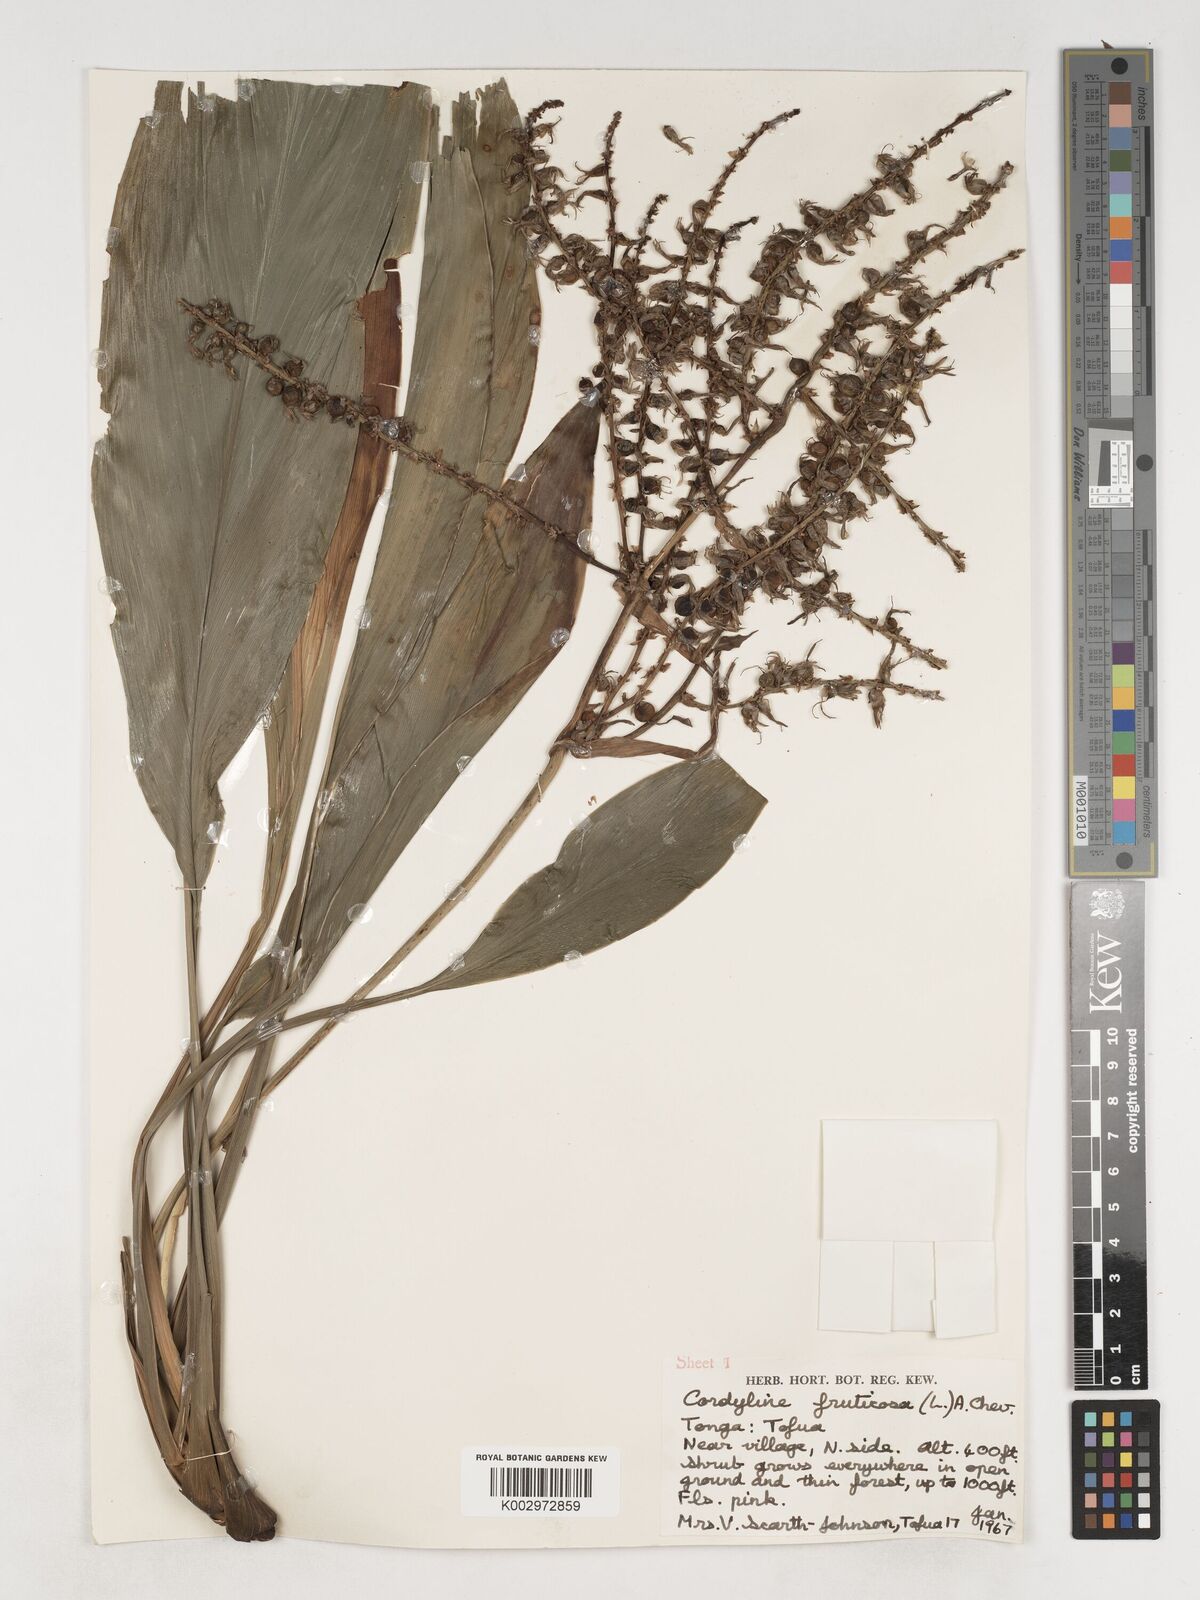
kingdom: Plantae
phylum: Tracheophyta
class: Liliopsida
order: Asparagales
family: Asparagaceae
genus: Cordyline
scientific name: Cordyline fruticosa
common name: Good-luck-plant
